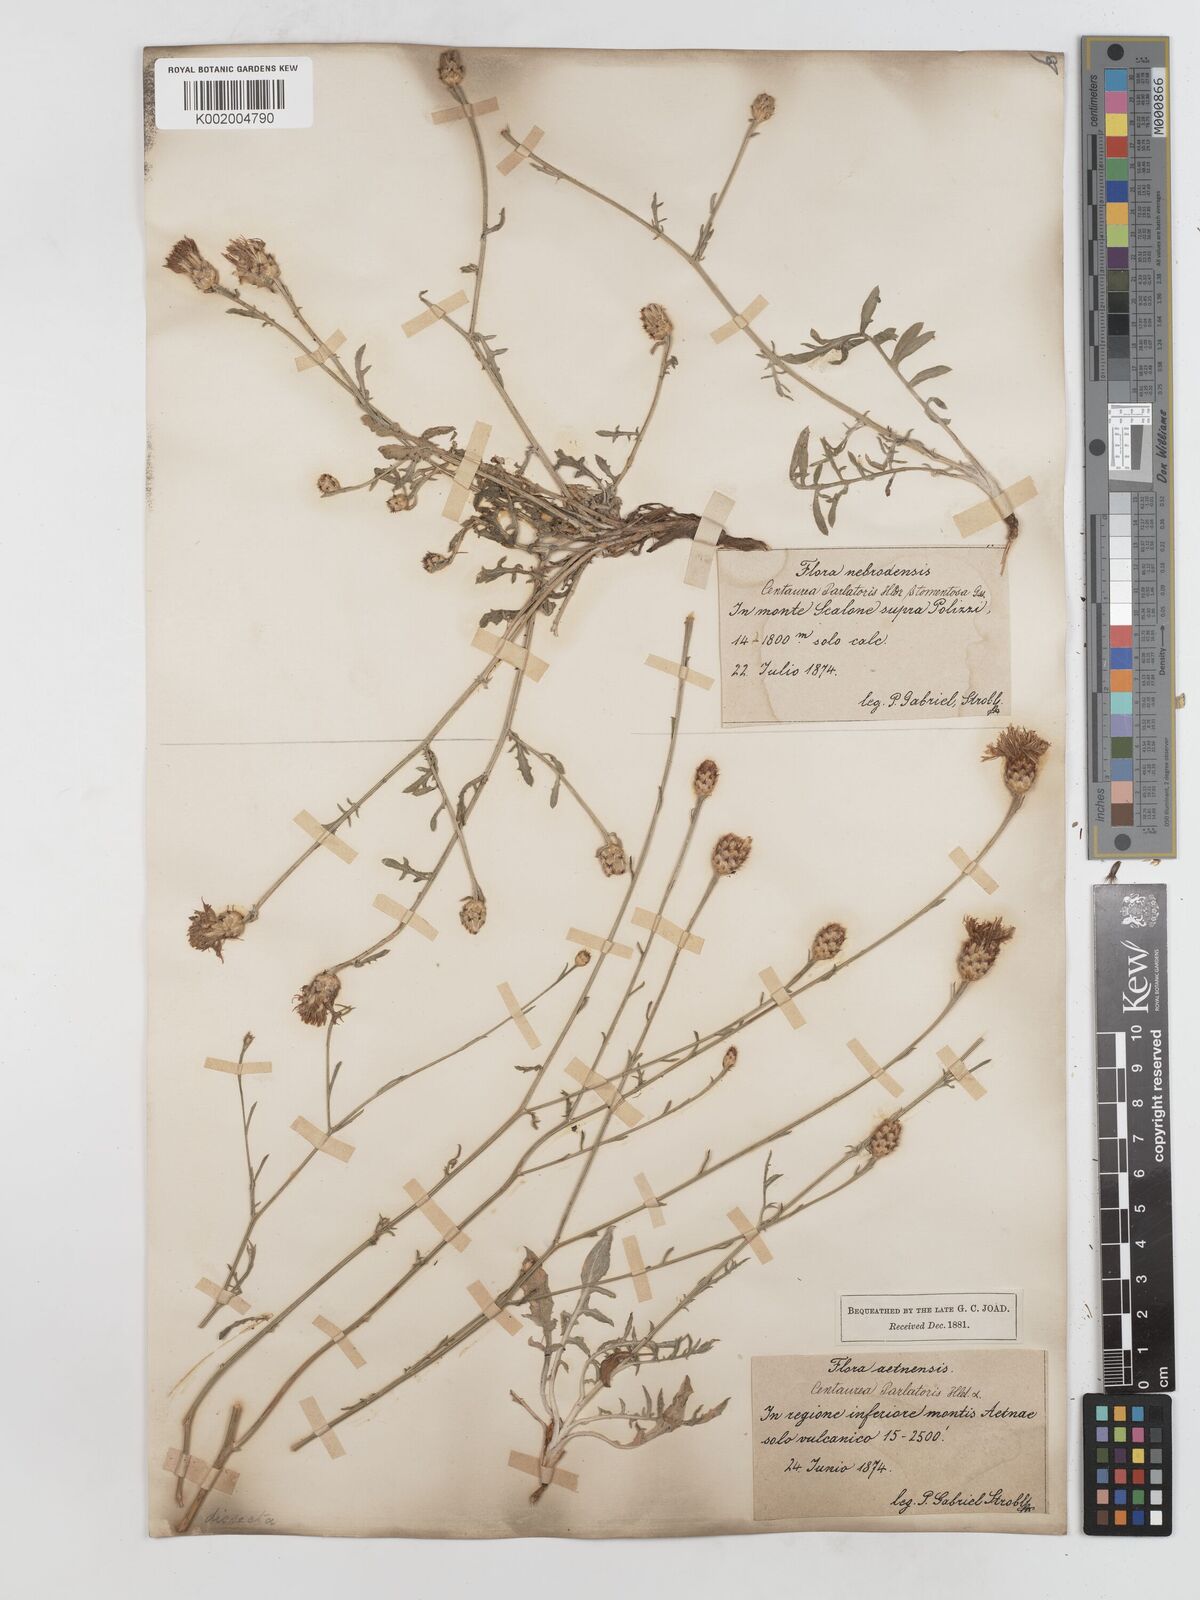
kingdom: Plantae
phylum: Tracheophyta
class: Magnoliopsida
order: Asterales
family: Asteraceae
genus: Centaurea
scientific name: Centaurea gussonei
